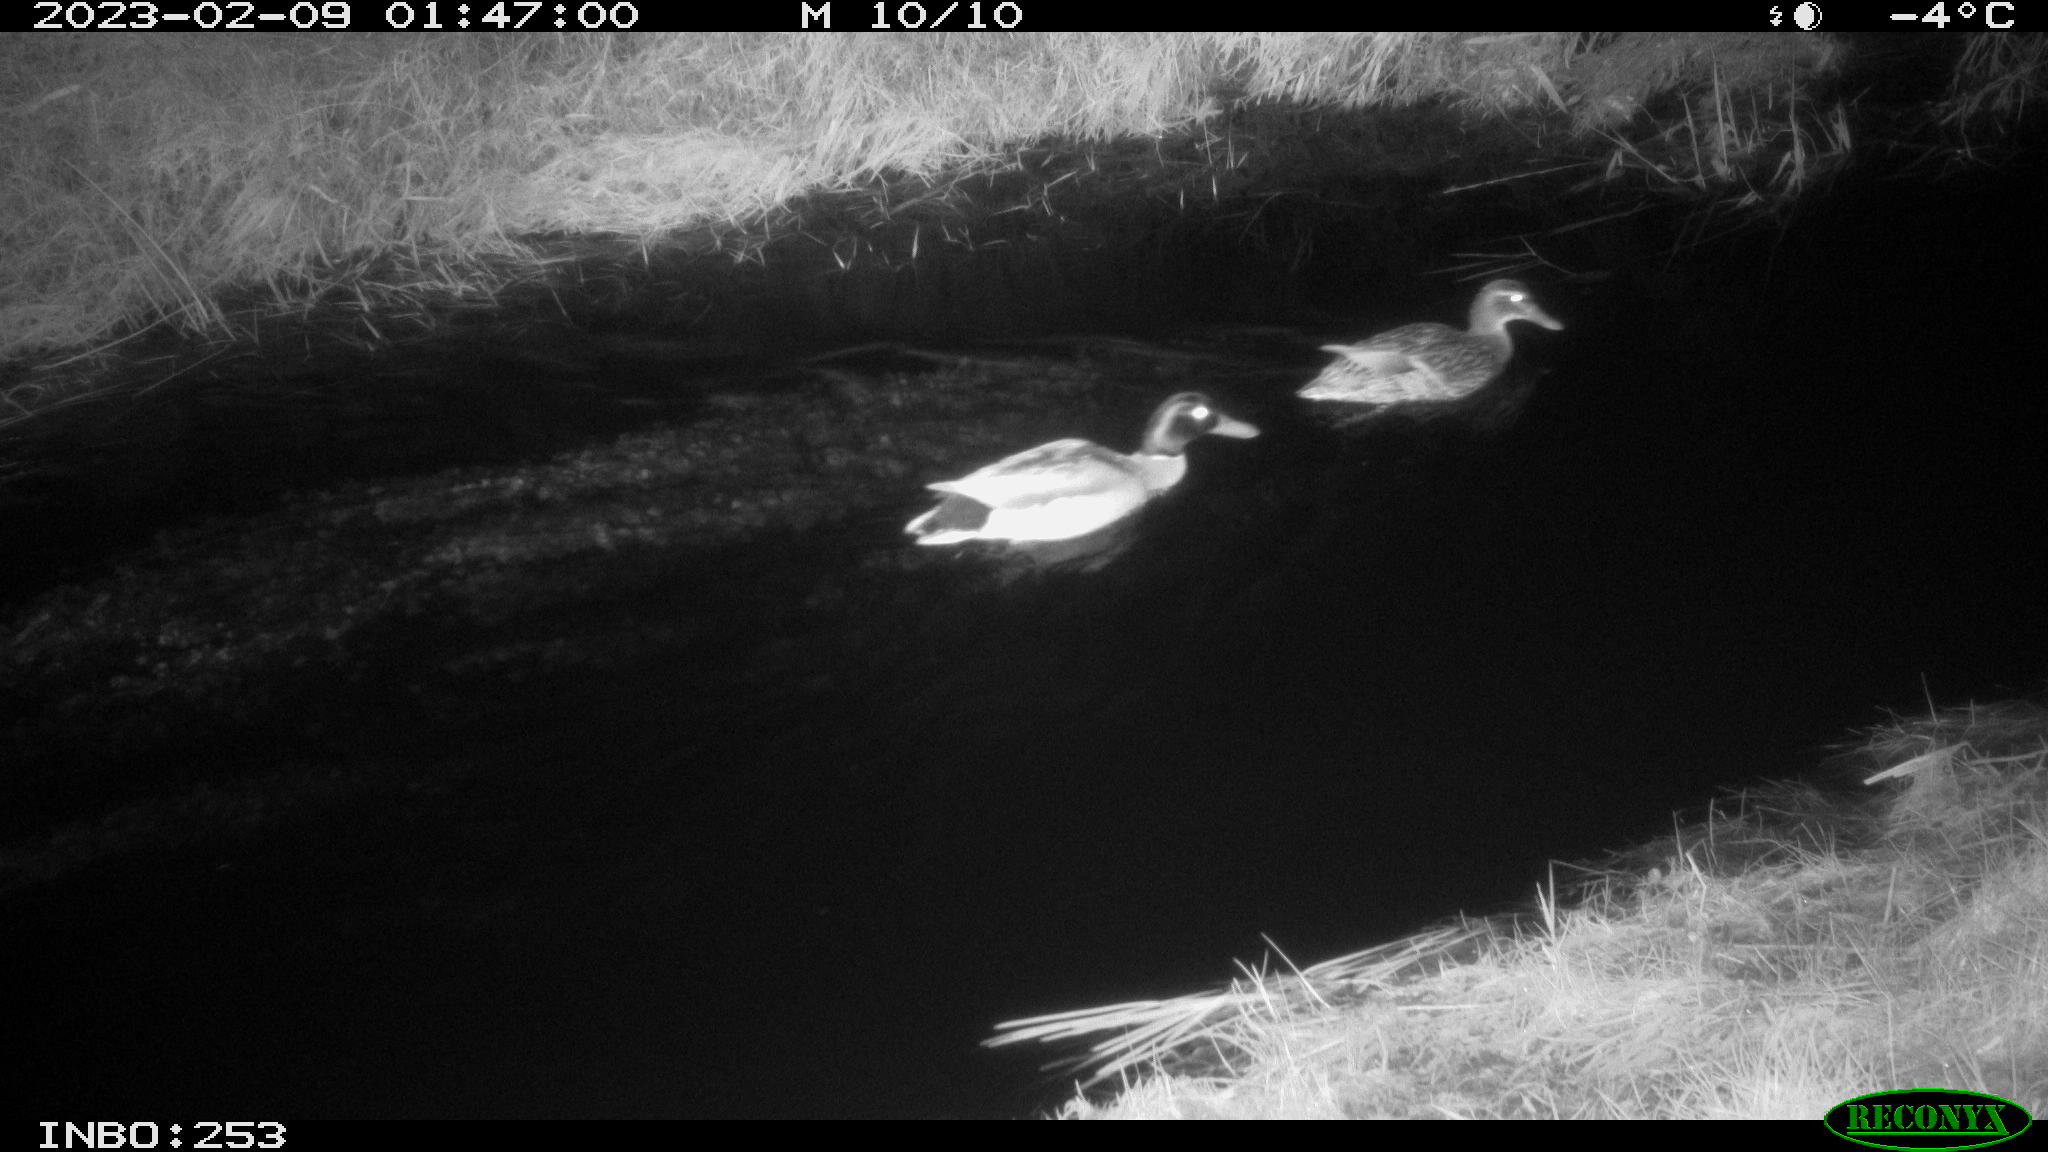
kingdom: Animalia
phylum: Chordata
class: Aves
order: Anseriformes
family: Anatidae
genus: Anas
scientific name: Anas
